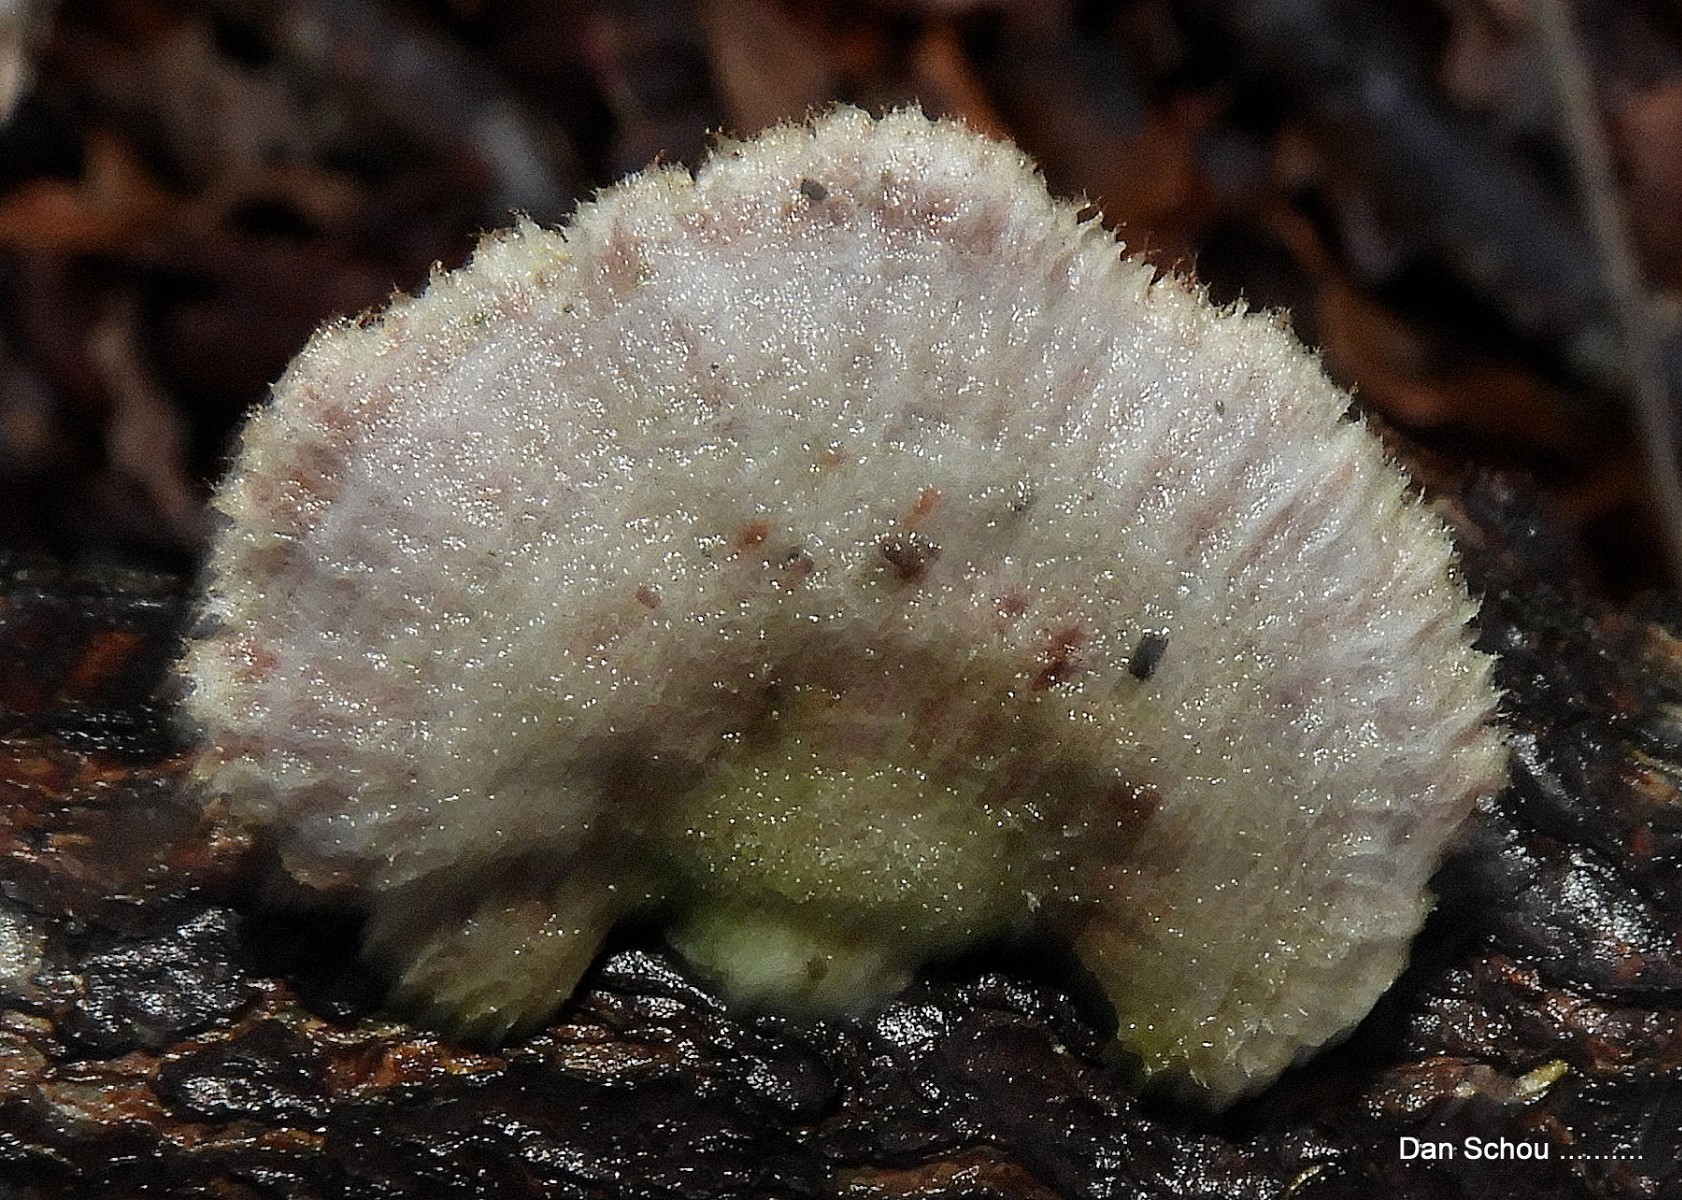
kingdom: Fungi
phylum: Basidiomycota
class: Agaricomycetes
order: Agaricales
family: Schizophyllaceae
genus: Schizophyllum
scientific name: Schizophyllum commune
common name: kløvblad
